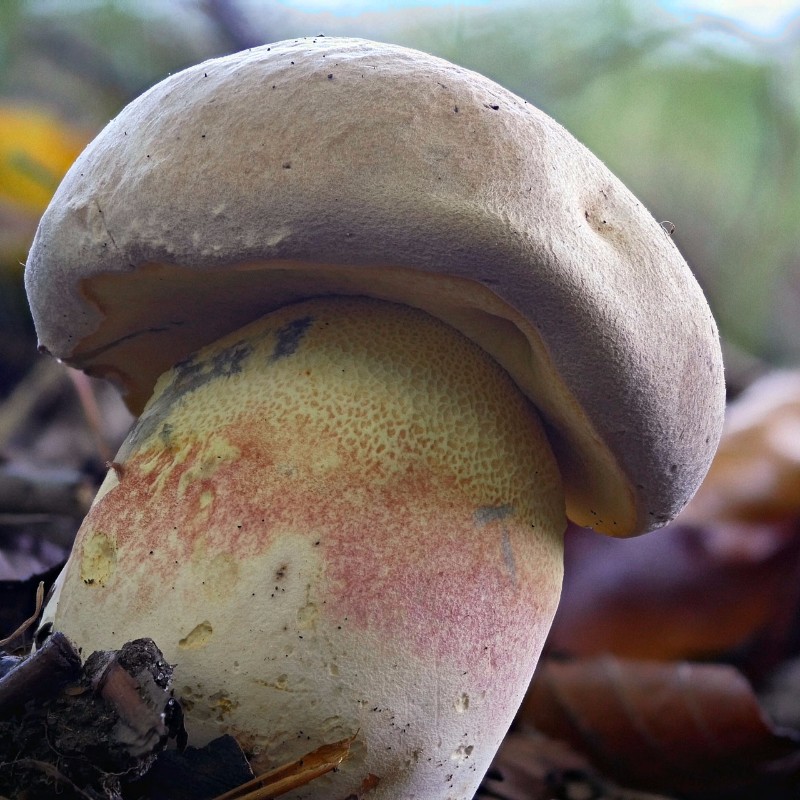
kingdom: Fungi
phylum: Basidiomycota
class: Agaricomycetes
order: Boletales
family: Boletaceae
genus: Butyriboletus
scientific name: Butyriboletus fechtneri
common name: sølvskinnende rørhat
